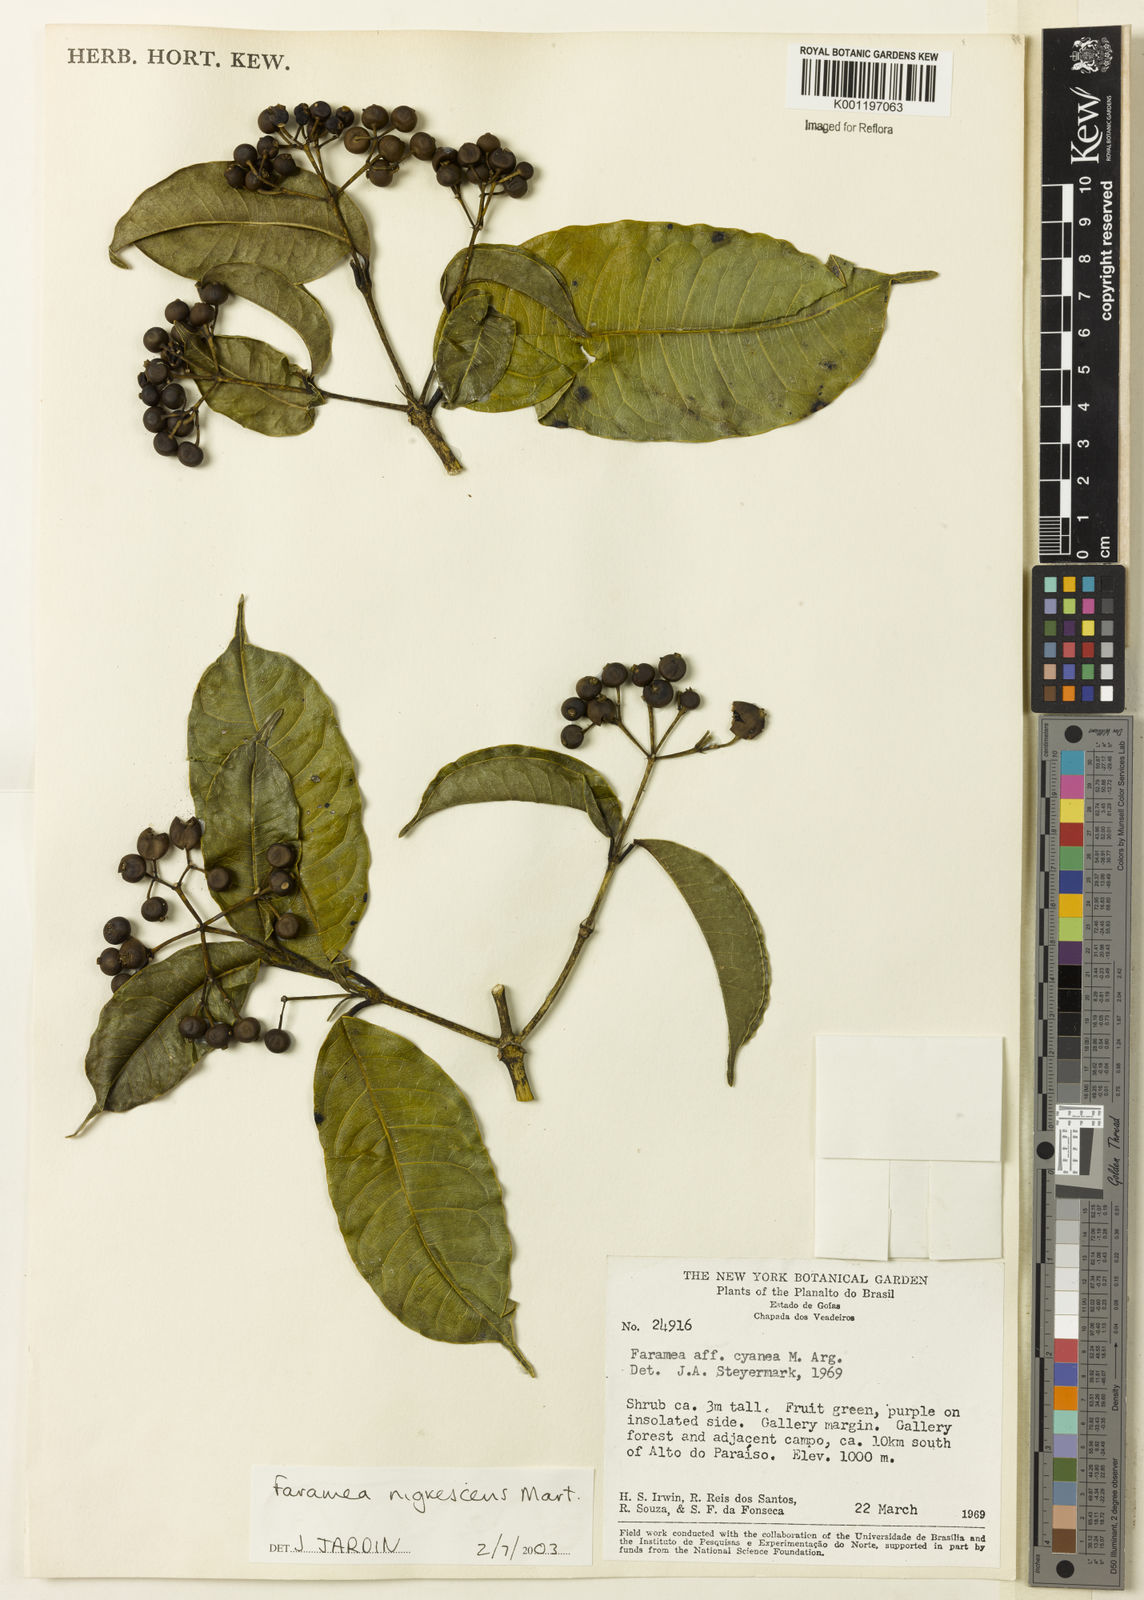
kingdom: Plantae
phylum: Tracheophyta
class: Magnoliopsida
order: Gentianales
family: Rubiaceae
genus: Faramea
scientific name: Faramea nigrescens
